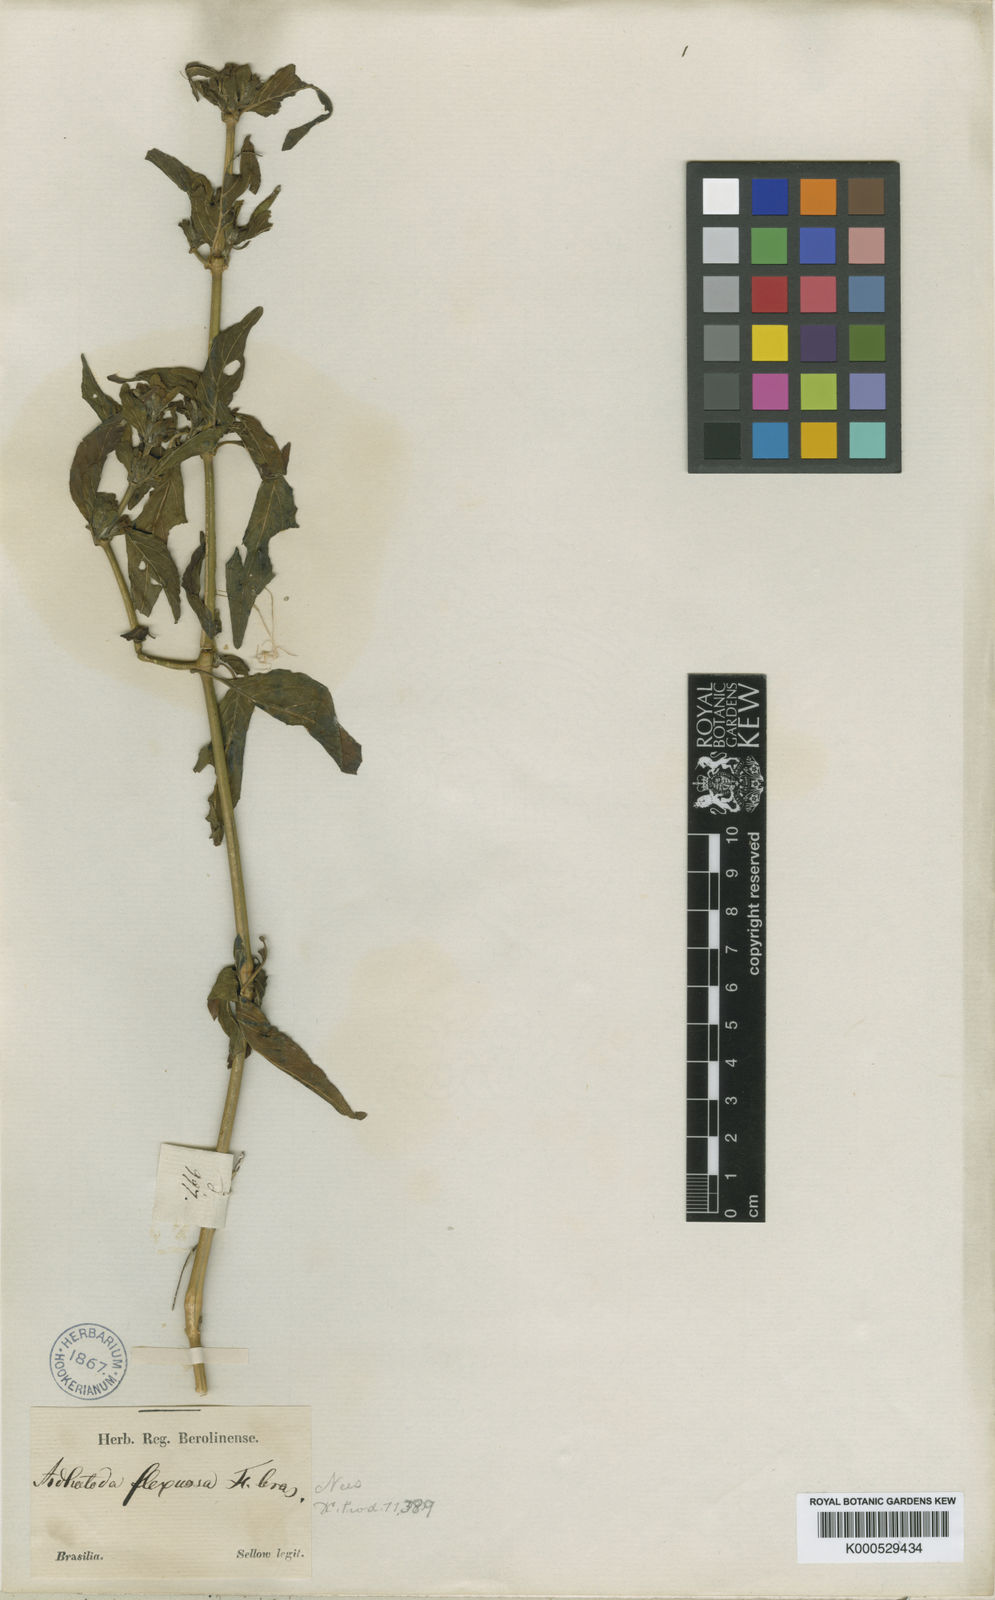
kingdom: Plantae
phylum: Tracheophyta
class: Magnoliopsida
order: Lamiales
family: Acanthaceae
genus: Poikilacanthus
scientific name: Poikilacanthus glandulosus
